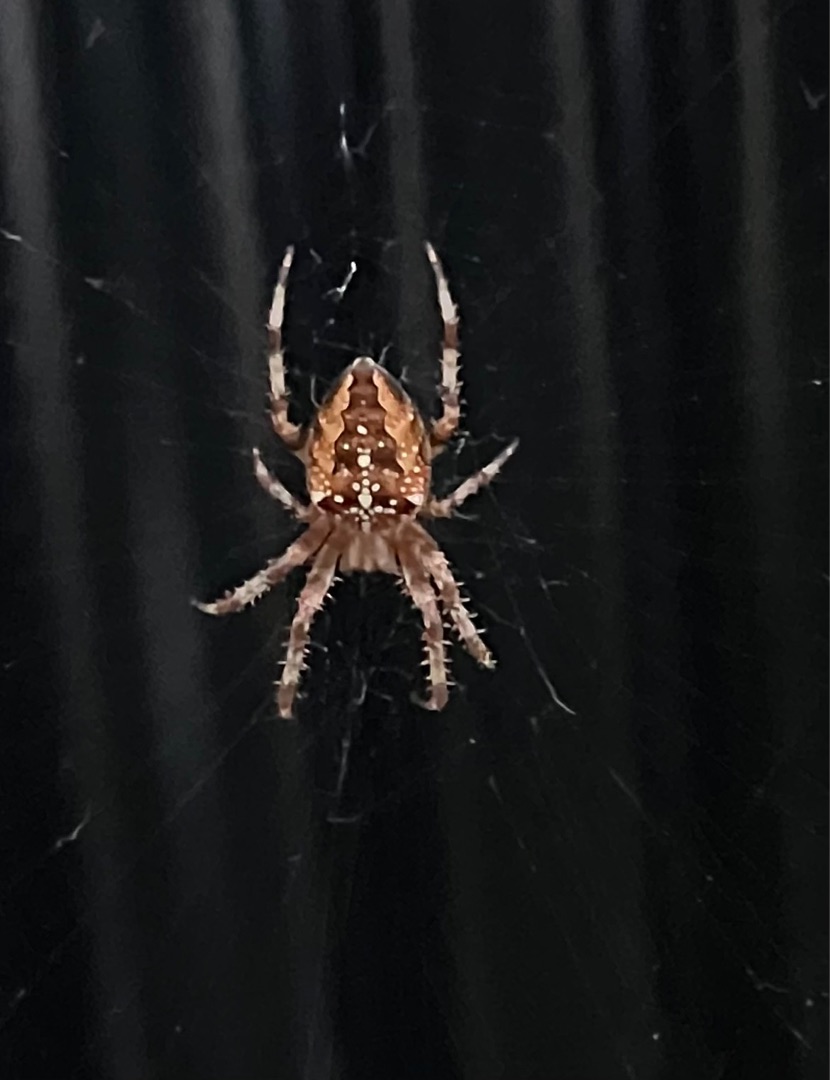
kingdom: Animalia
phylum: Arthropoda
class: Arachnida
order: Araneae
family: Araneidae
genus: Araneus
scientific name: Araneus diadematus
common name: Korsedderkop
